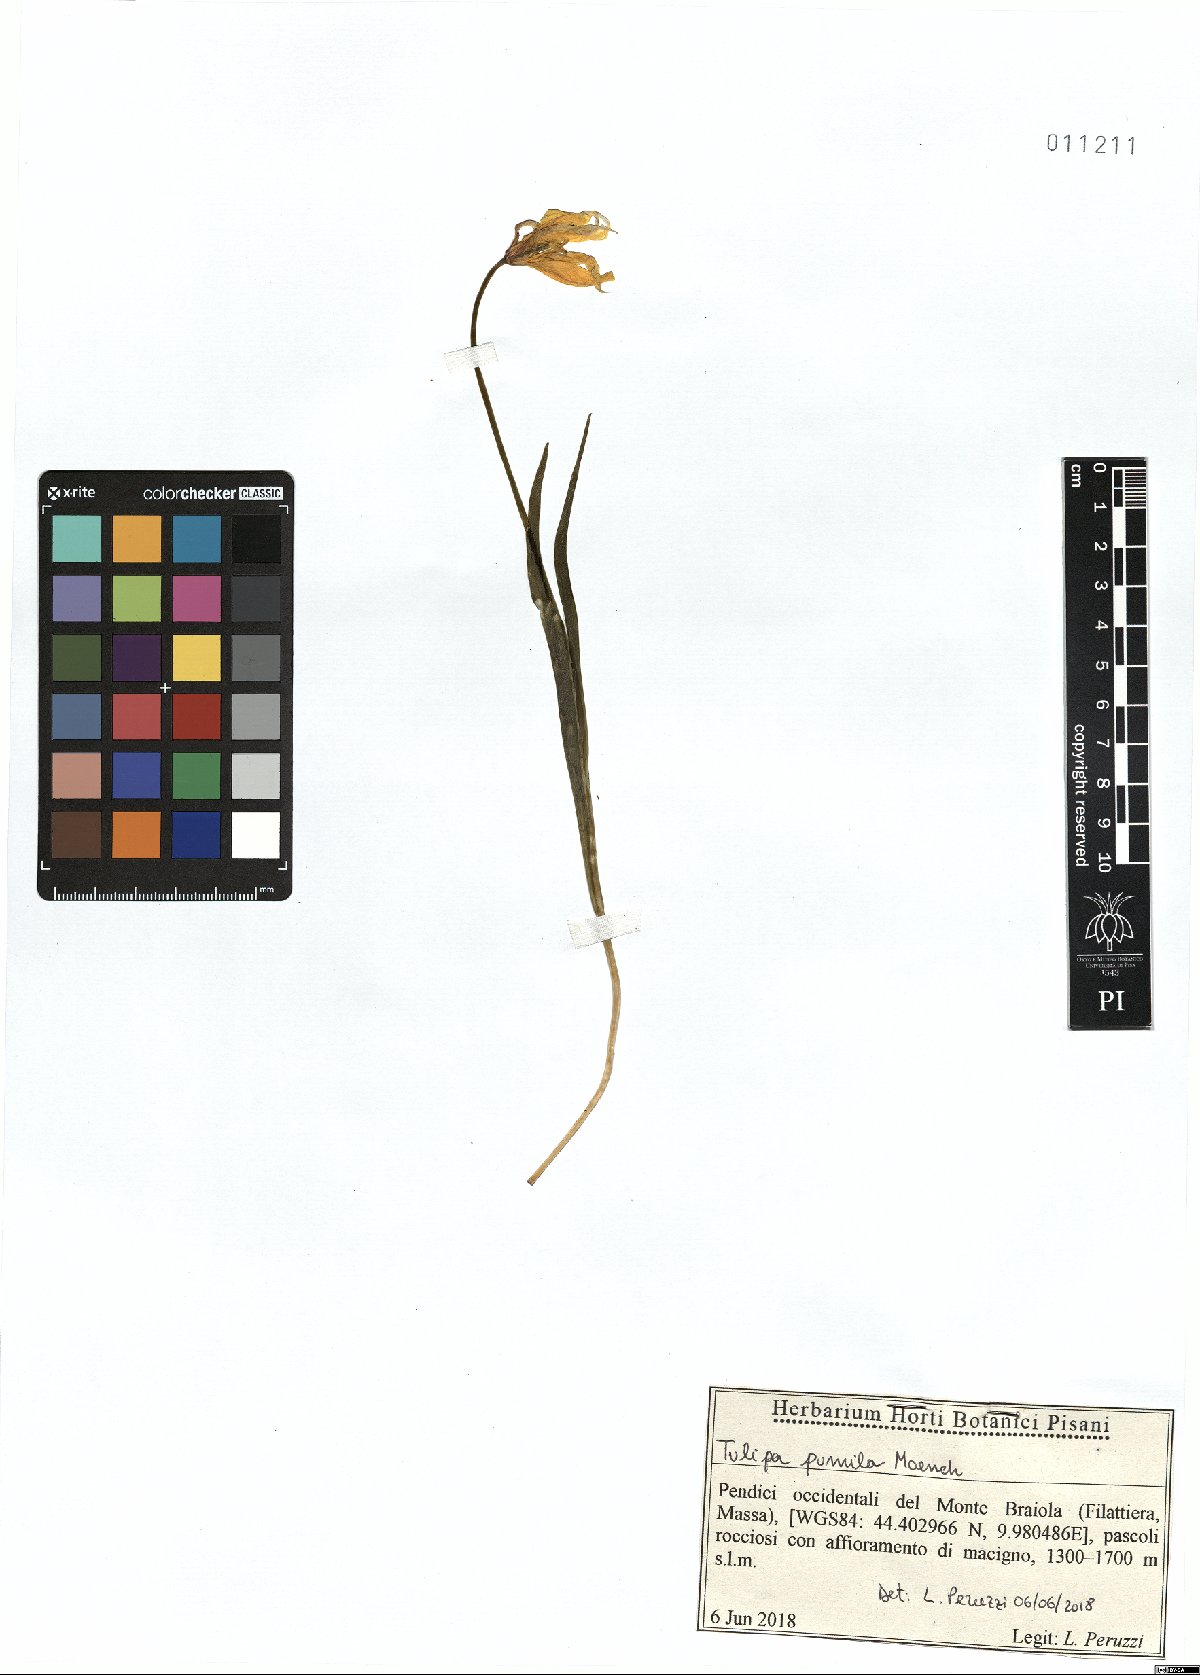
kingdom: Plantae
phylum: Tracheophyta
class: Liliopsida
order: Liliales
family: Liliaceae
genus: Tulipa
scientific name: Tulipa sylvestris
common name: Wild tulip
